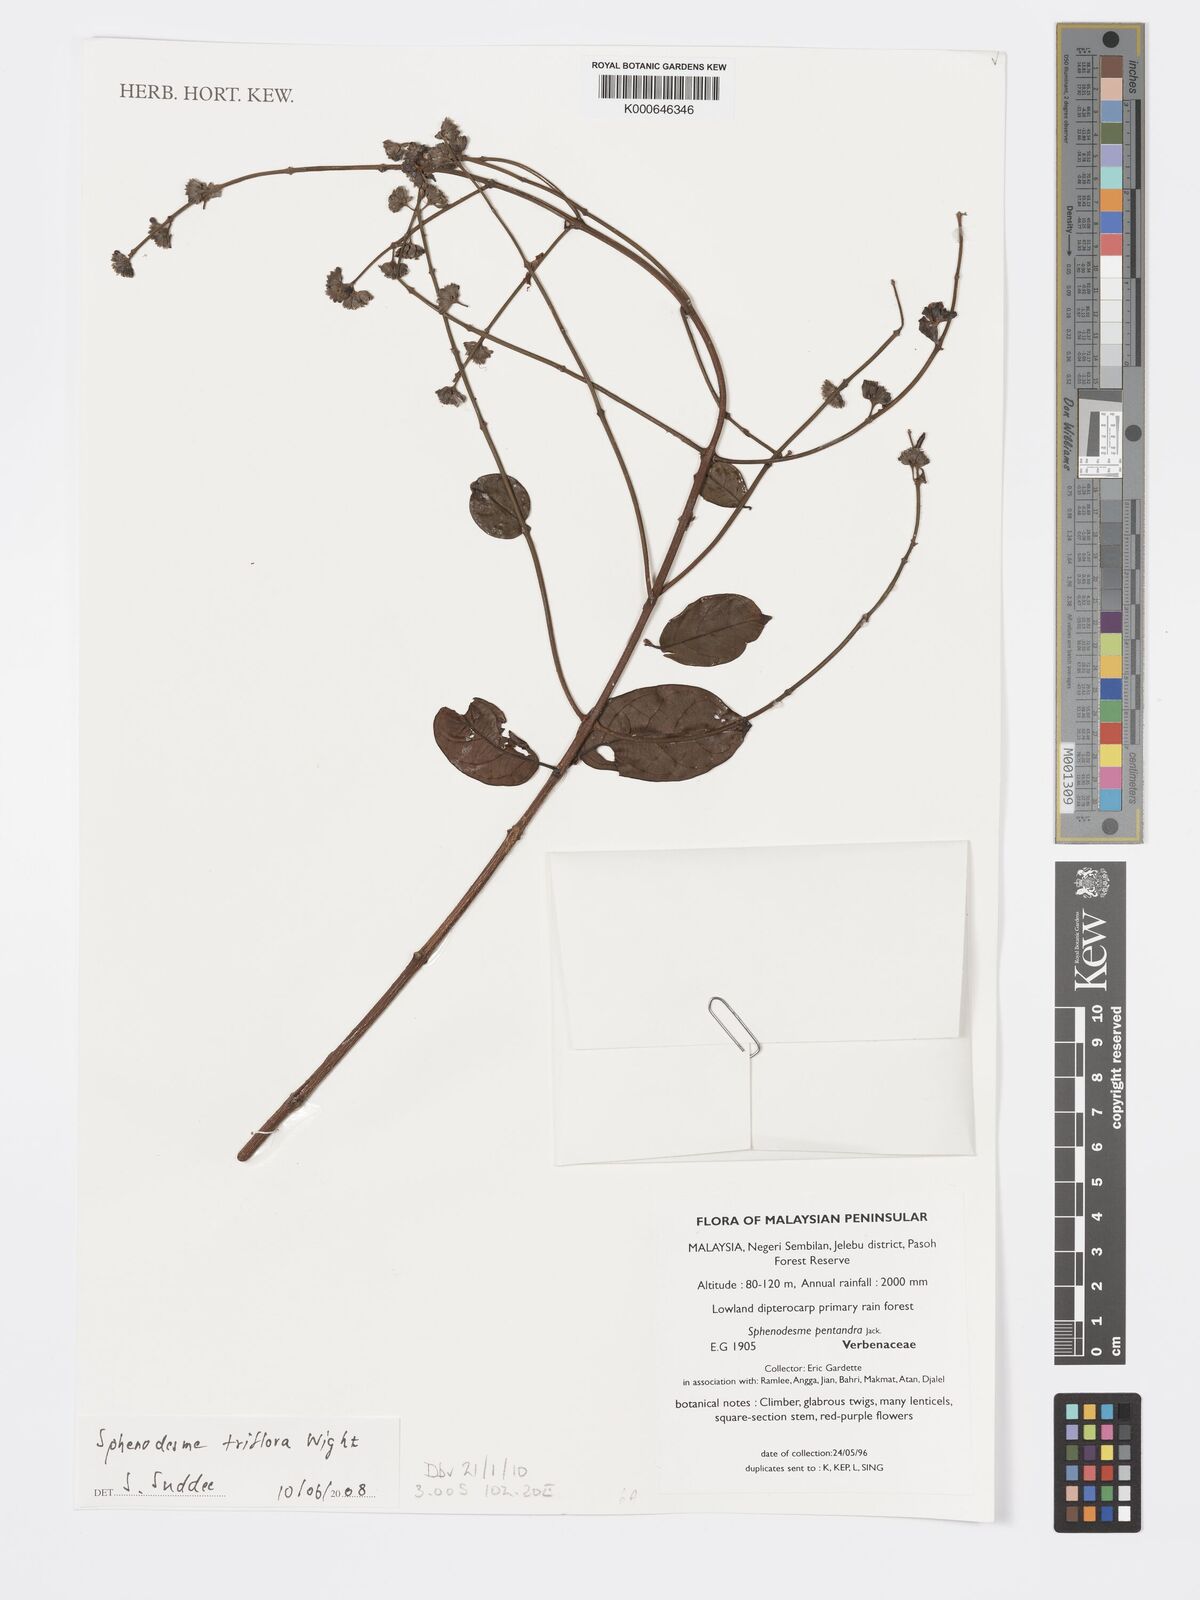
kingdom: Plantae
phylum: Tracheophyta
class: Magnoliopsida
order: Lamiales
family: Lamiaceae
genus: Sphenodesme
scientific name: Sphenodesme
